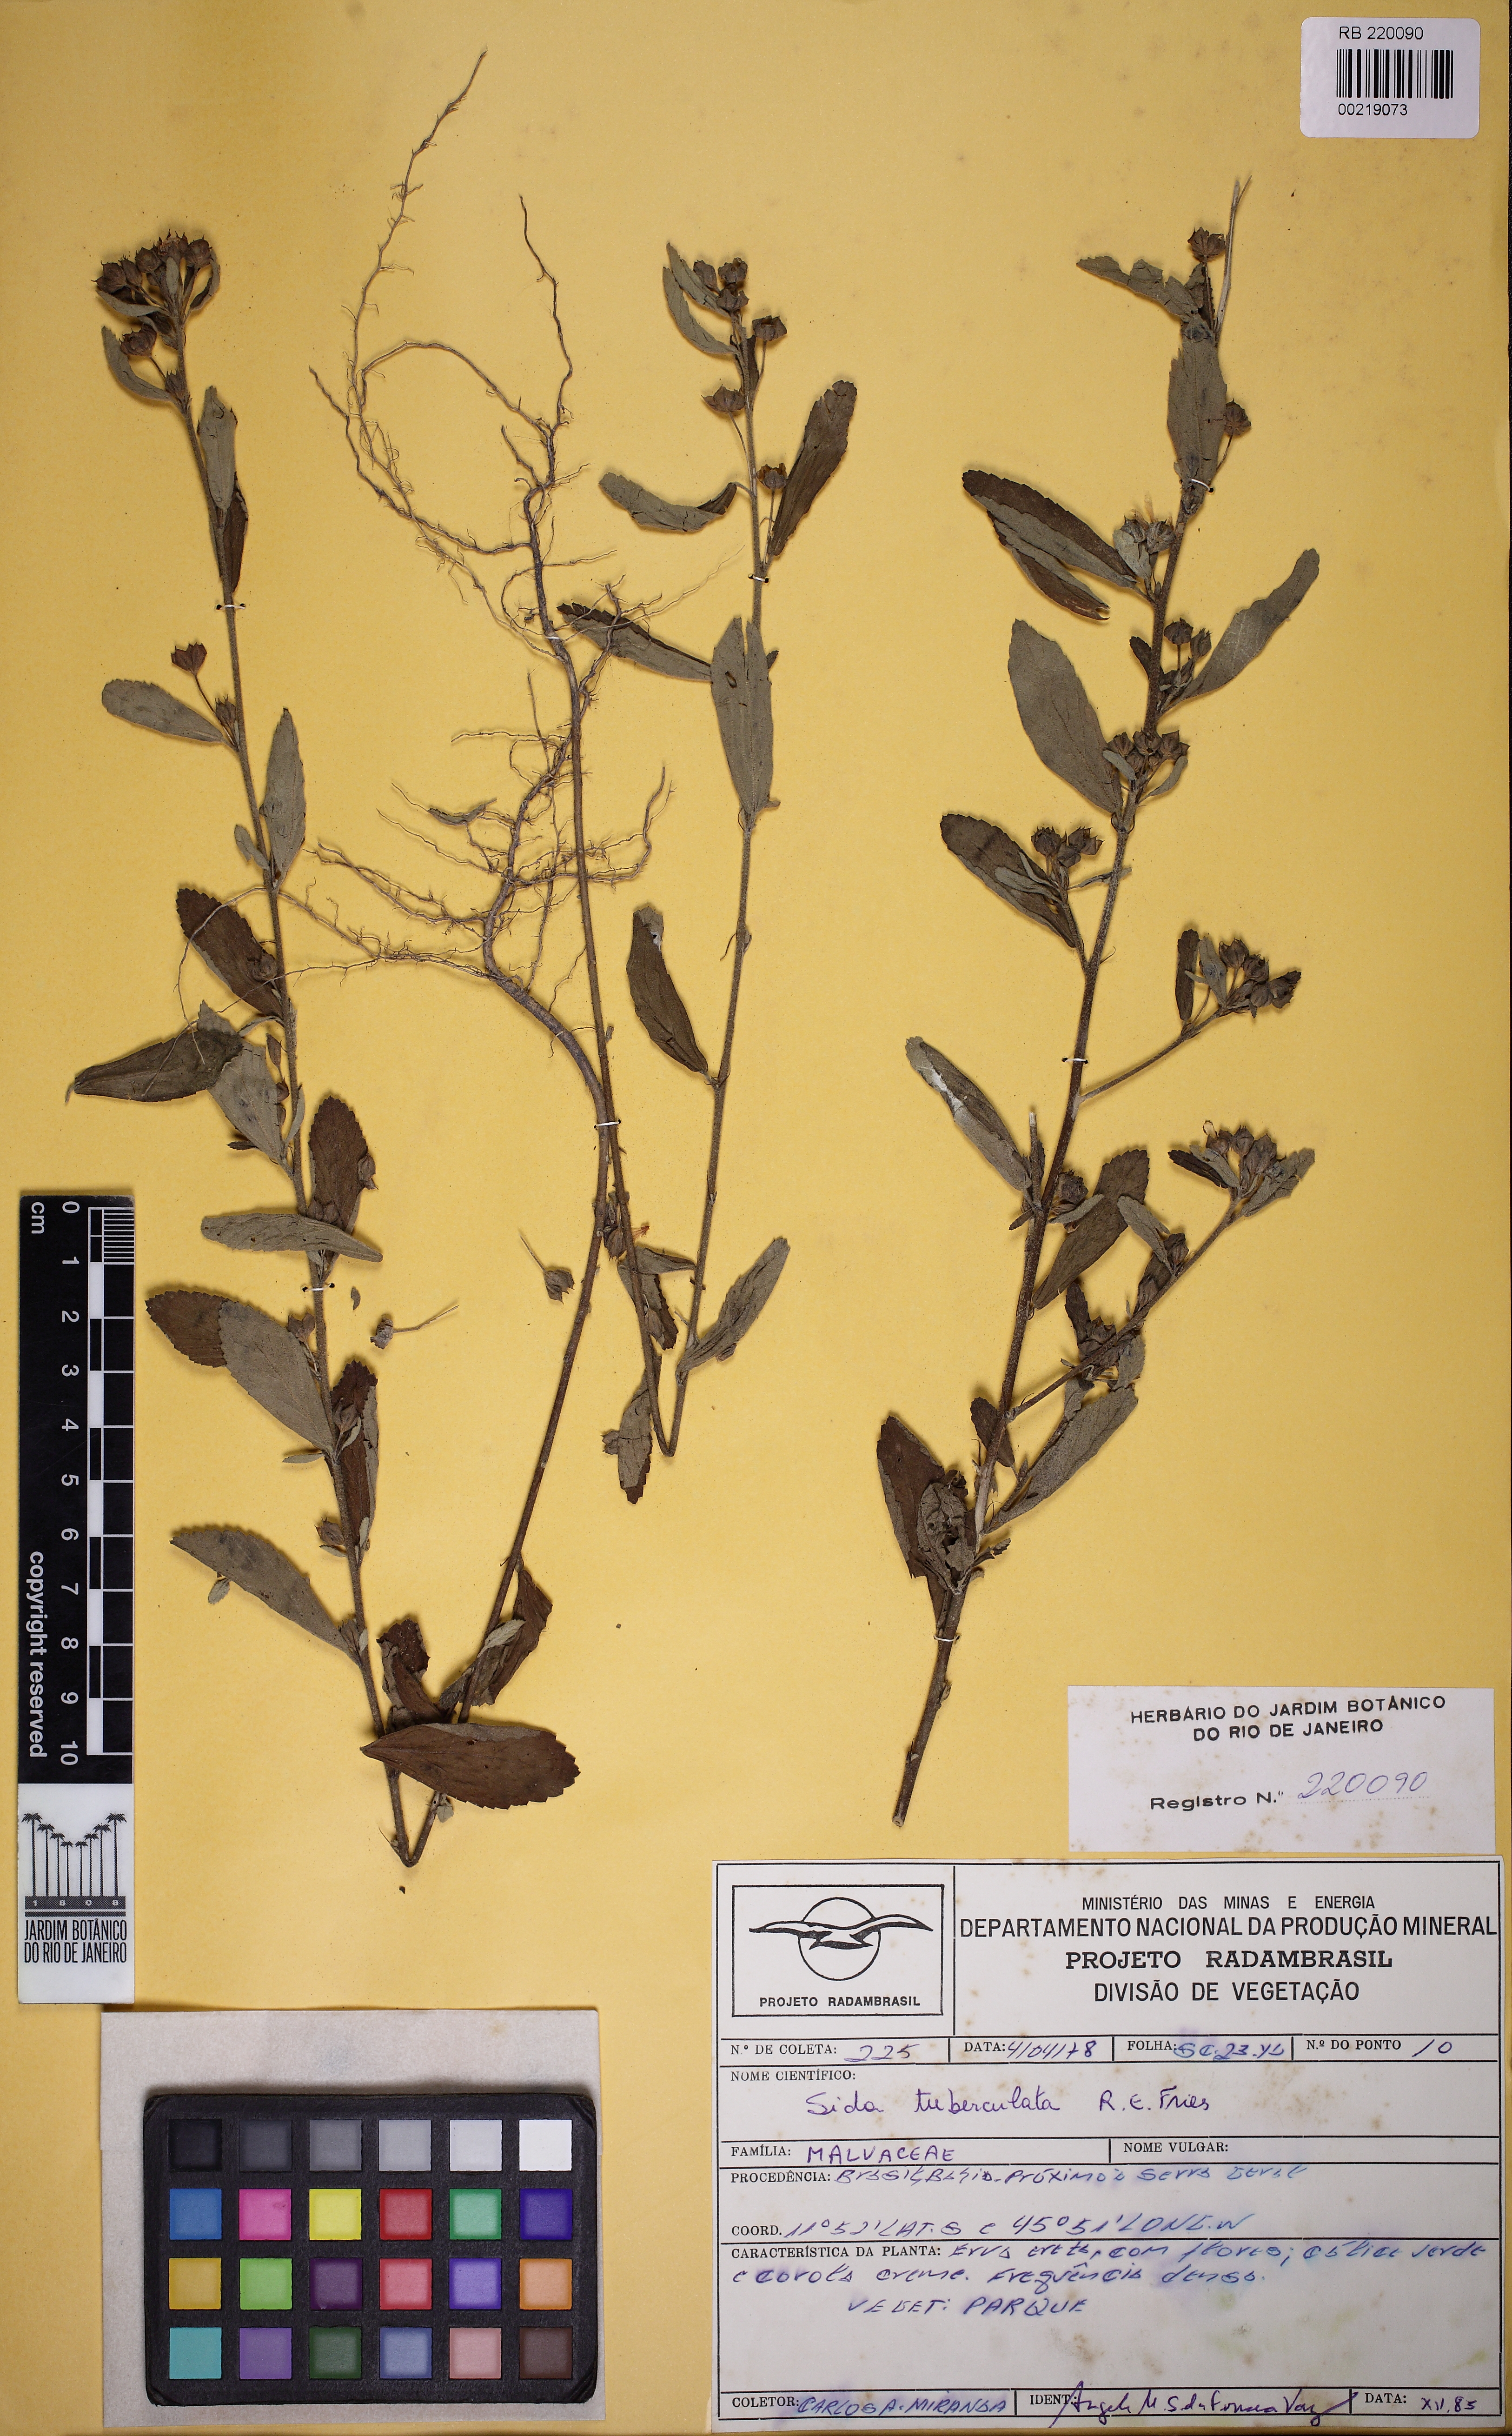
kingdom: Plantae
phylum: Tracheophyta
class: Magnoliopsida
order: Malvales
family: Malvaceae
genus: Sida
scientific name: Sida tuberculata
